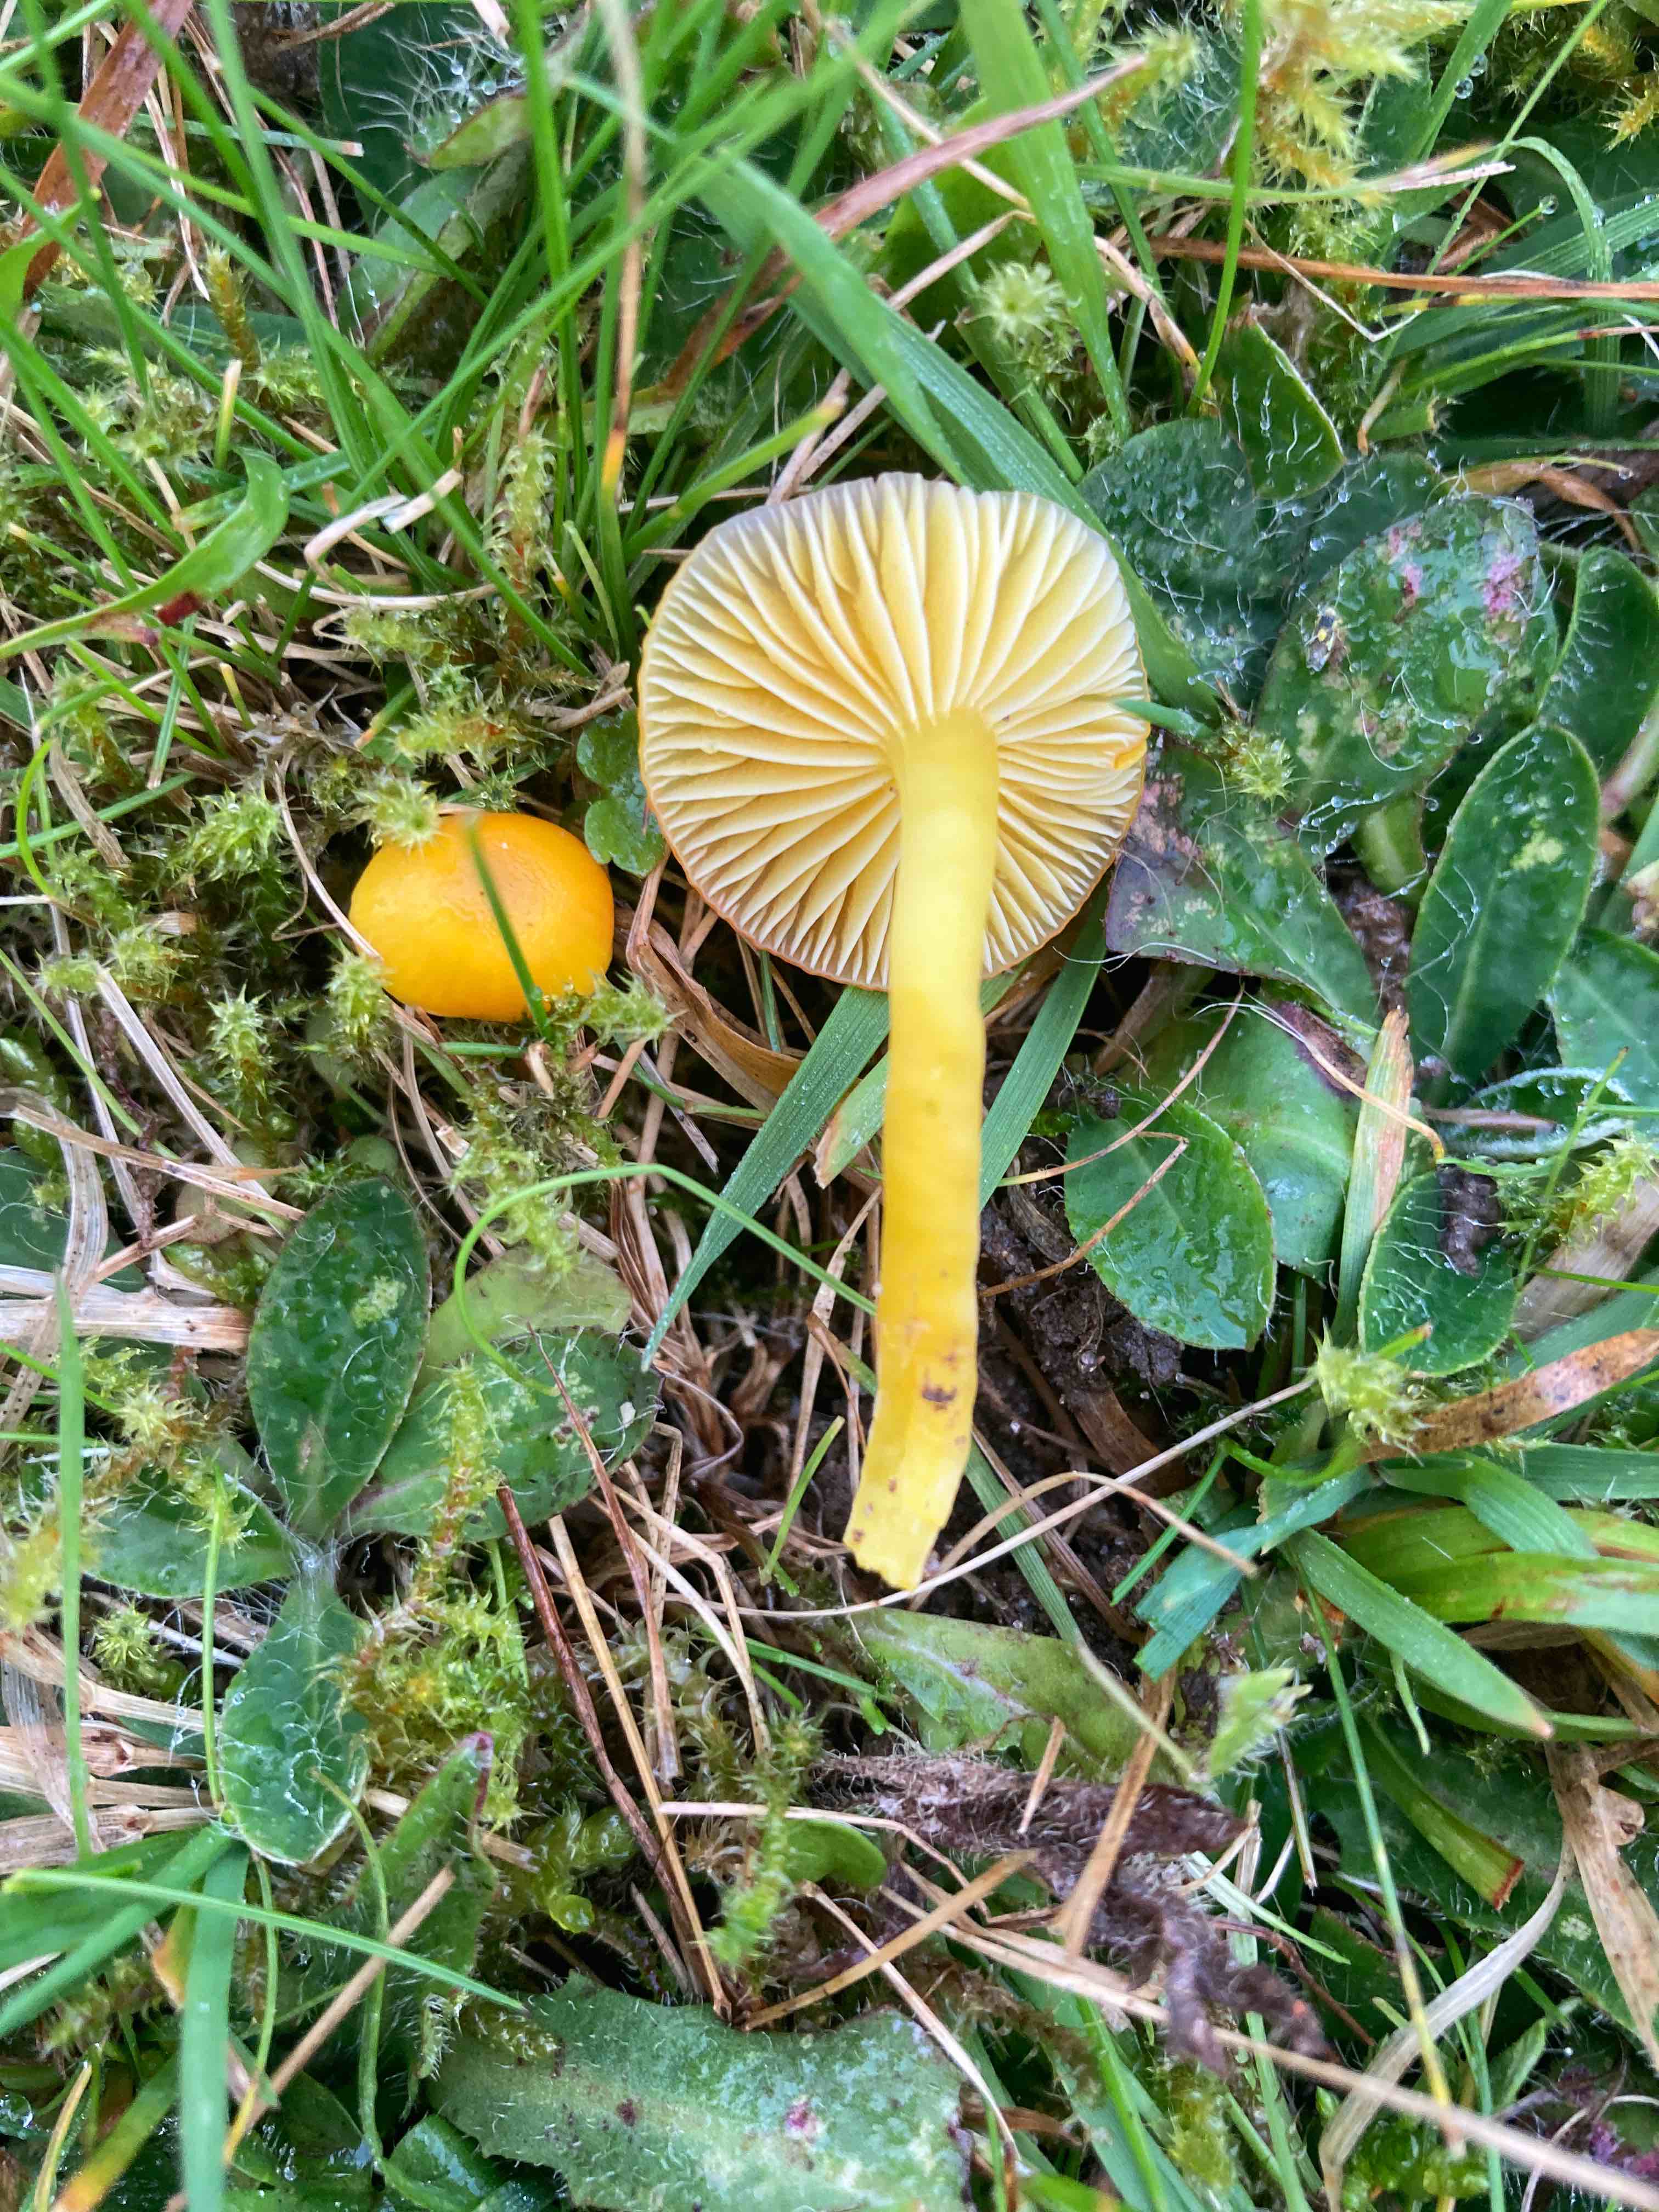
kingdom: Fungi
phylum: Basidiomycota
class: Agaricomycetes
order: Agaricales
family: Hygrophoraceae
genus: Hygrocybe
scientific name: Hygrocybe ceracea
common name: voksgul vokshat
